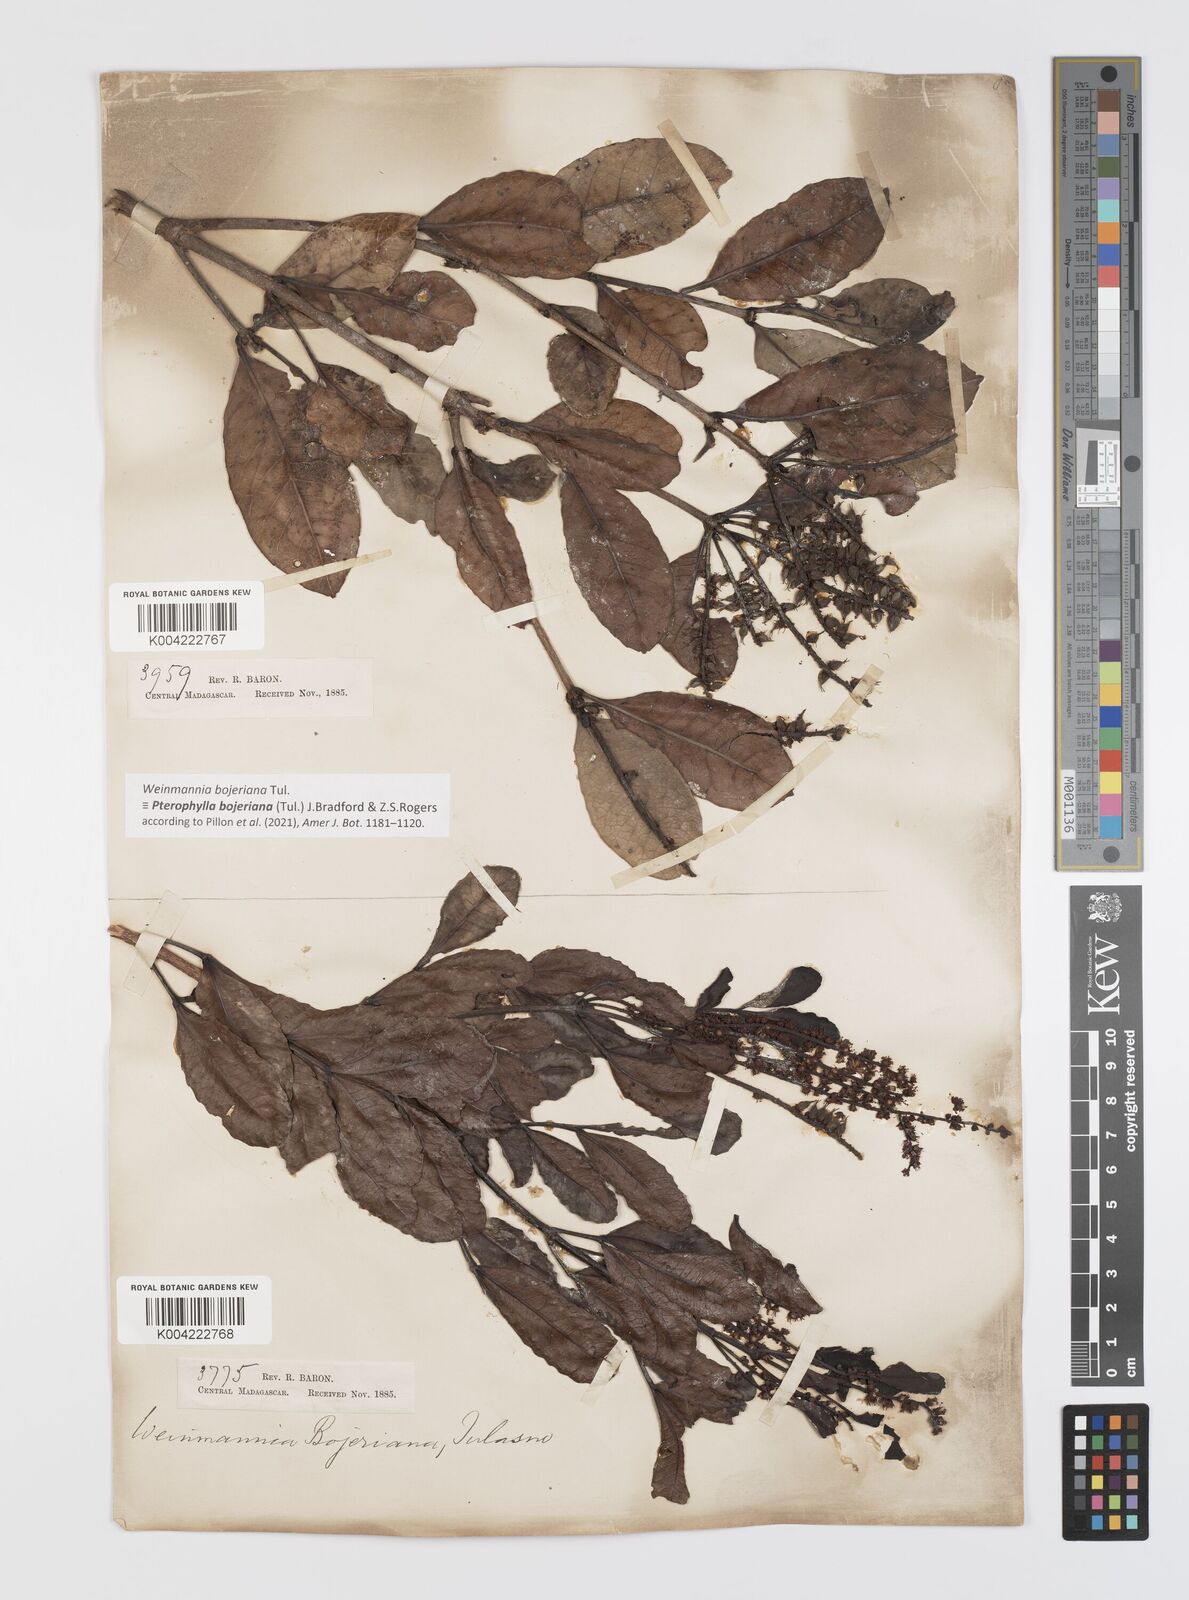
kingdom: Plantae
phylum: Tracheophyta
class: Magnoliopsida
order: Oxalidales
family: Cunoniaceae
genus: Pterophylla
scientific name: Pterophylla
